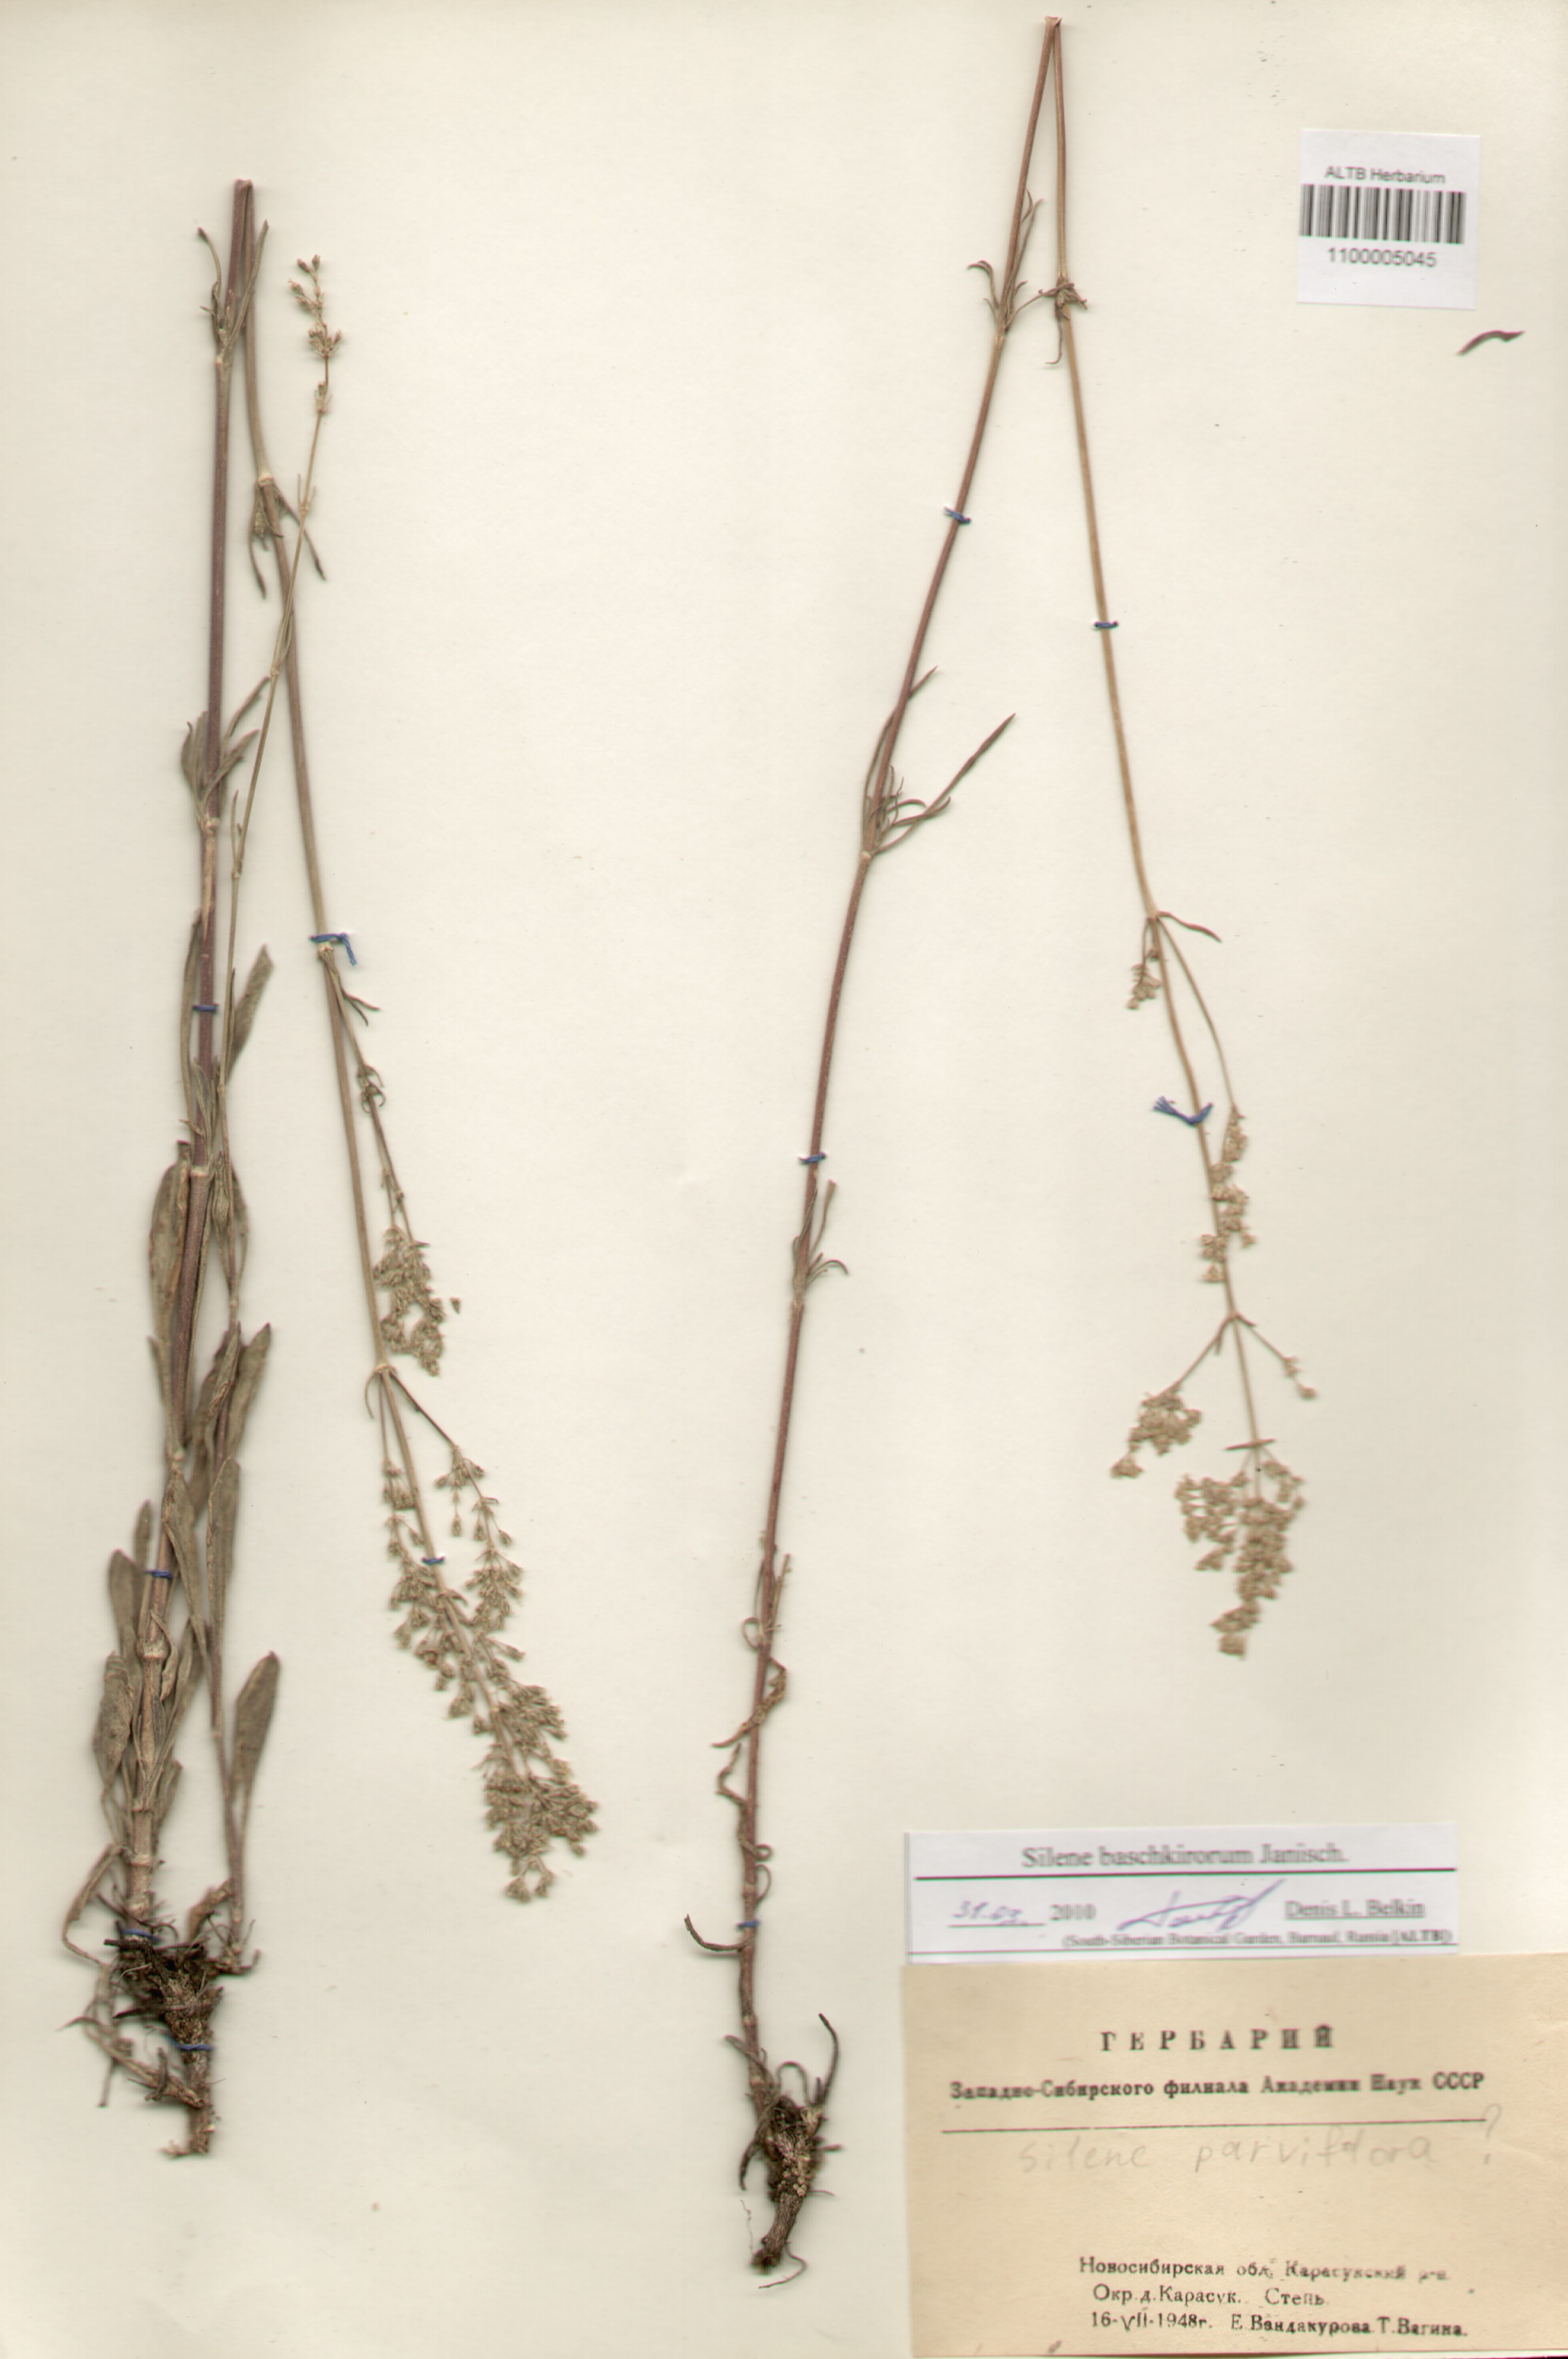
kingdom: Plantae
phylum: Tracheophyta
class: Magnoliopsida
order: Caryophyllales
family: Caryophyllaceae
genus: Silene
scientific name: Silene baschkirorum
